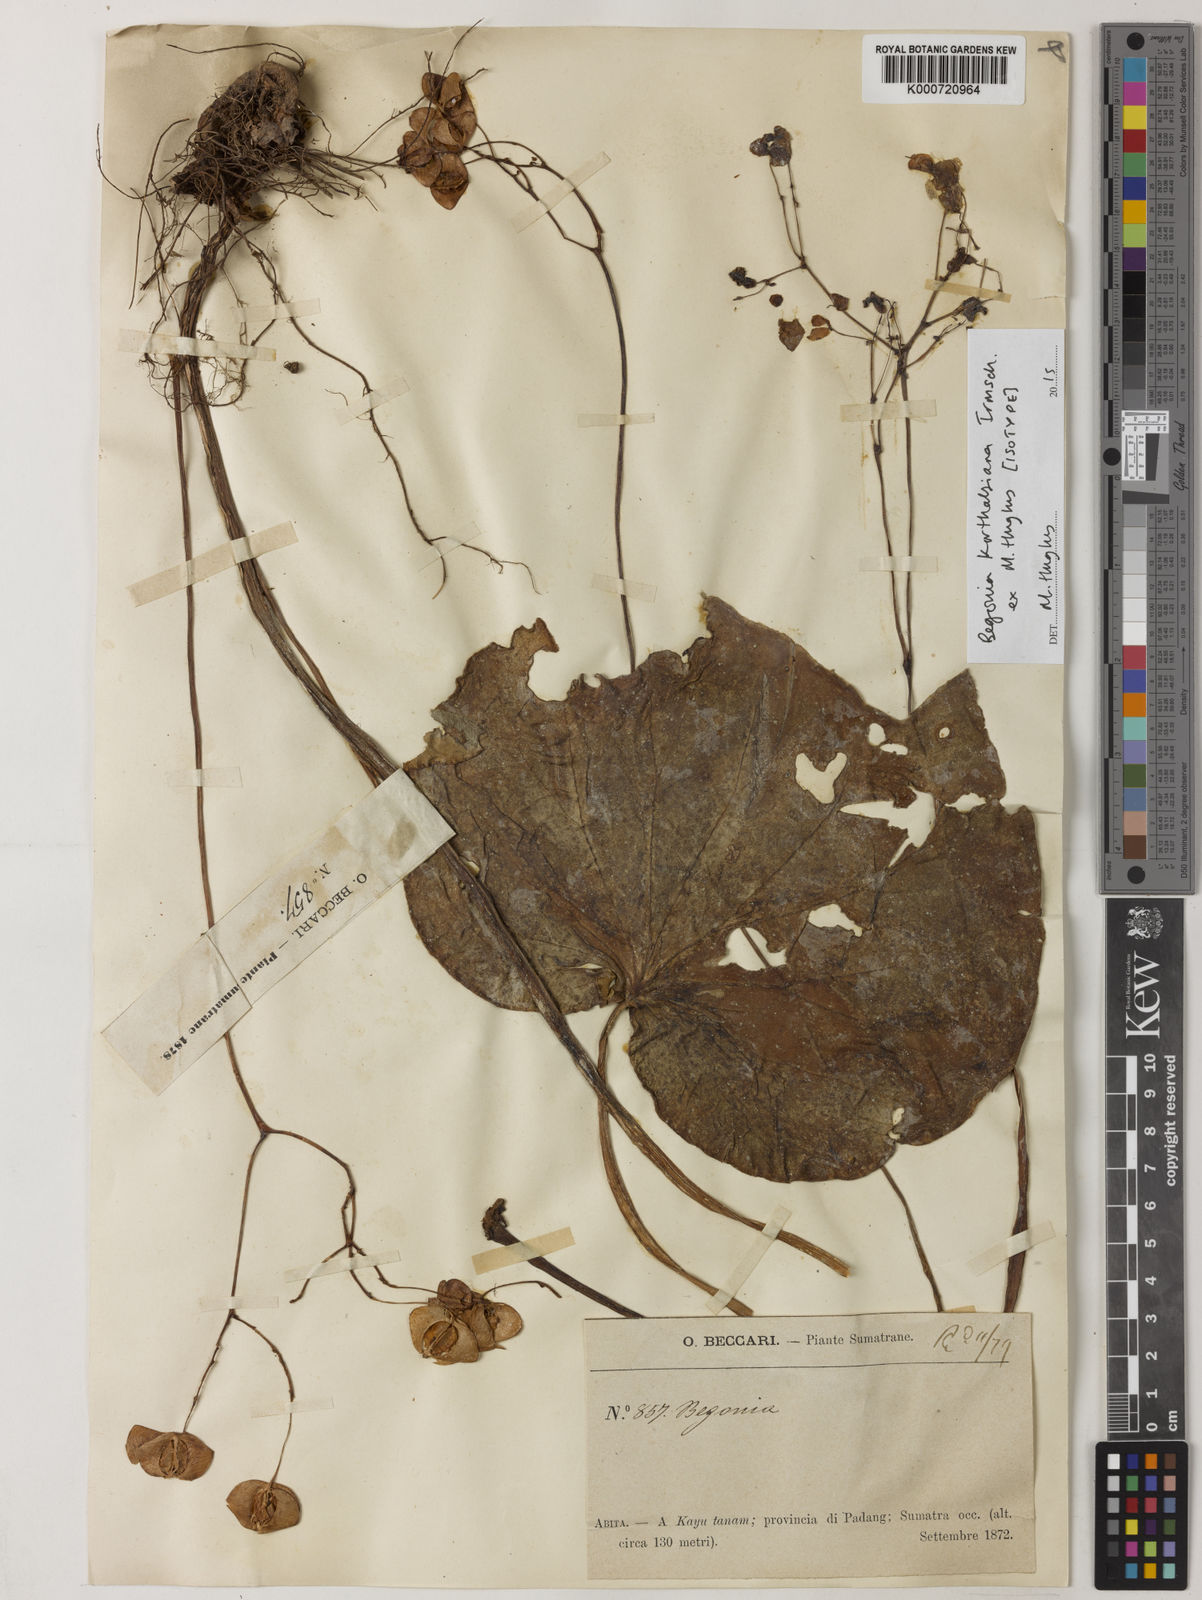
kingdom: Plantae
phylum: Tracheophyta
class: Magnoliopsida
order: Cucurbitales
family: Begoniaceae
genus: Begonia
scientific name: Begonia korthalsiana
